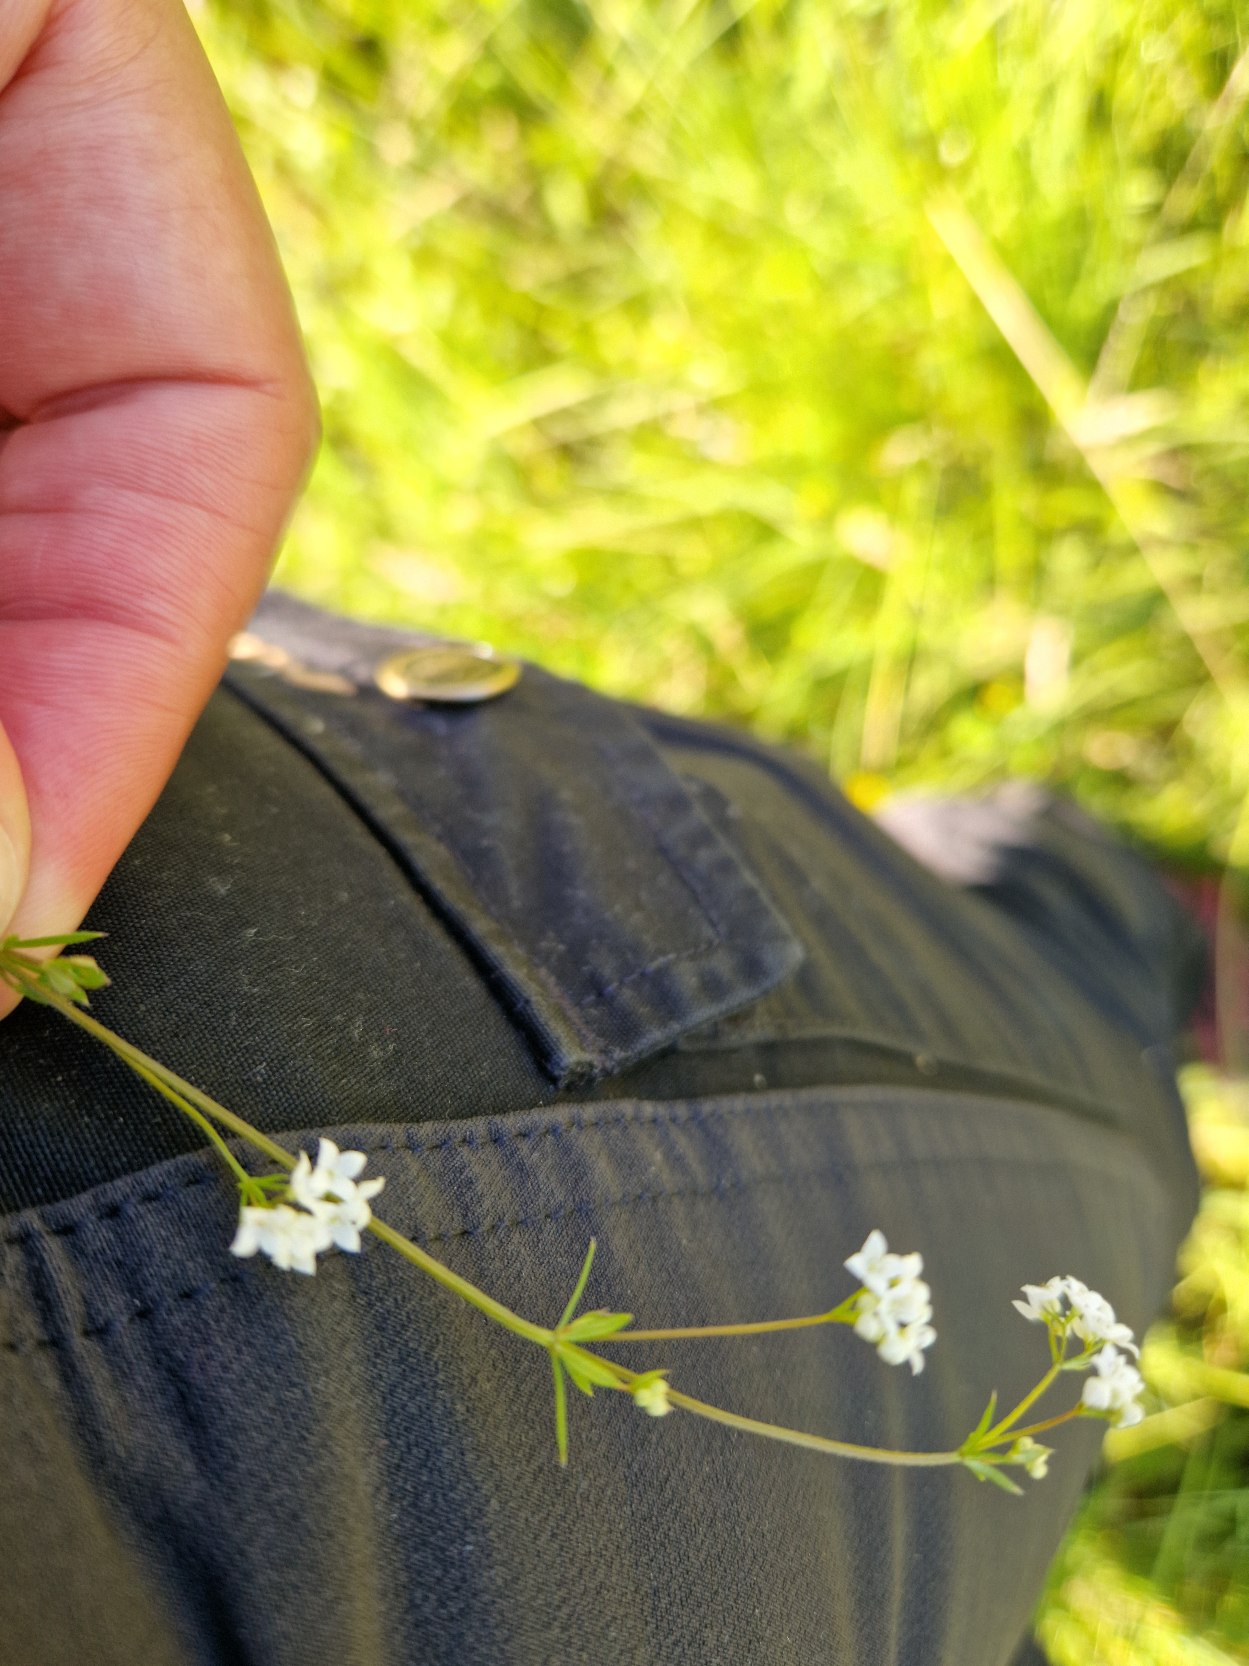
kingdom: Plantae
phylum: Tracheophyta
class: Magnoliopsida
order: Gentianales
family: Rubiaceae
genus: Galium
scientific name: Galium uliginosum
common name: Sump-snerre
